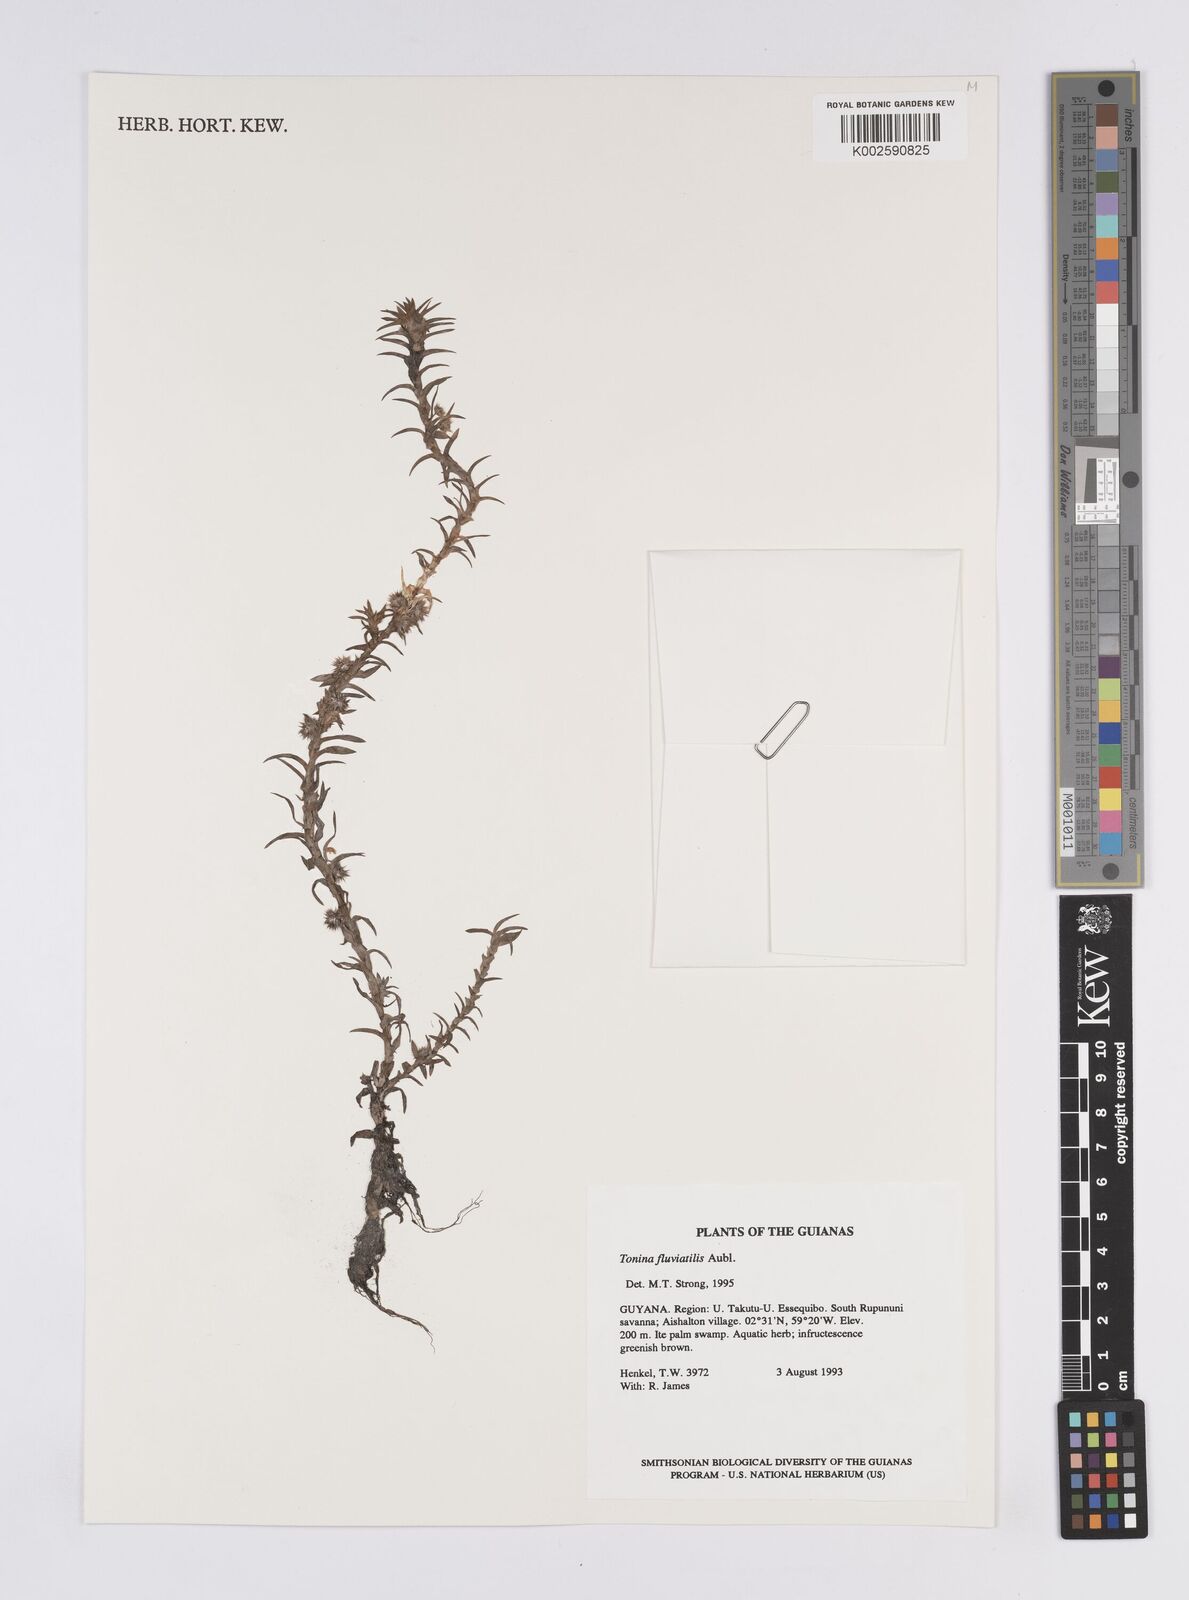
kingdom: Plantae
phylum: Tracheophyta
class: Liliopsida
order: Poales
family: Eriocaulaceae
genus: Paepalanthus
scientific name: Paepalanthus fluviatilis
